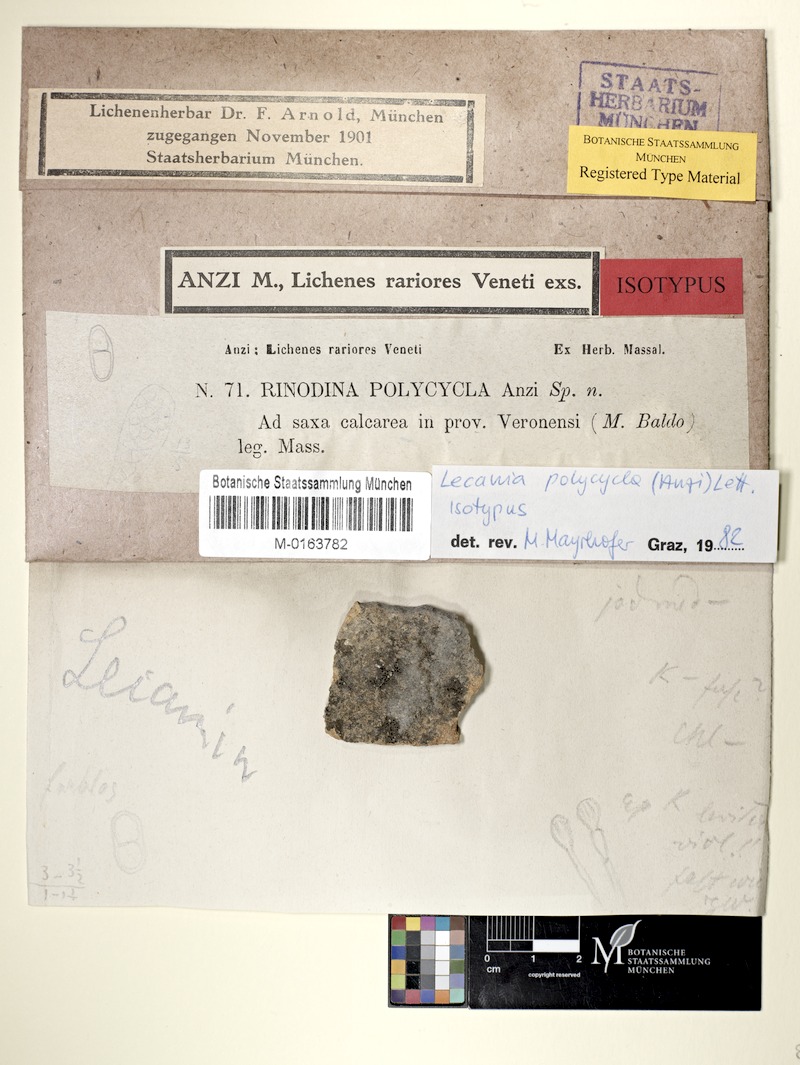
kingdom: Fungi
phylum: Ascomycota
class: Lecanoromycetes
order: Lecanorales
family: Ramalinaceae
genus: Lecania
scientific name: Lecania polycycla
